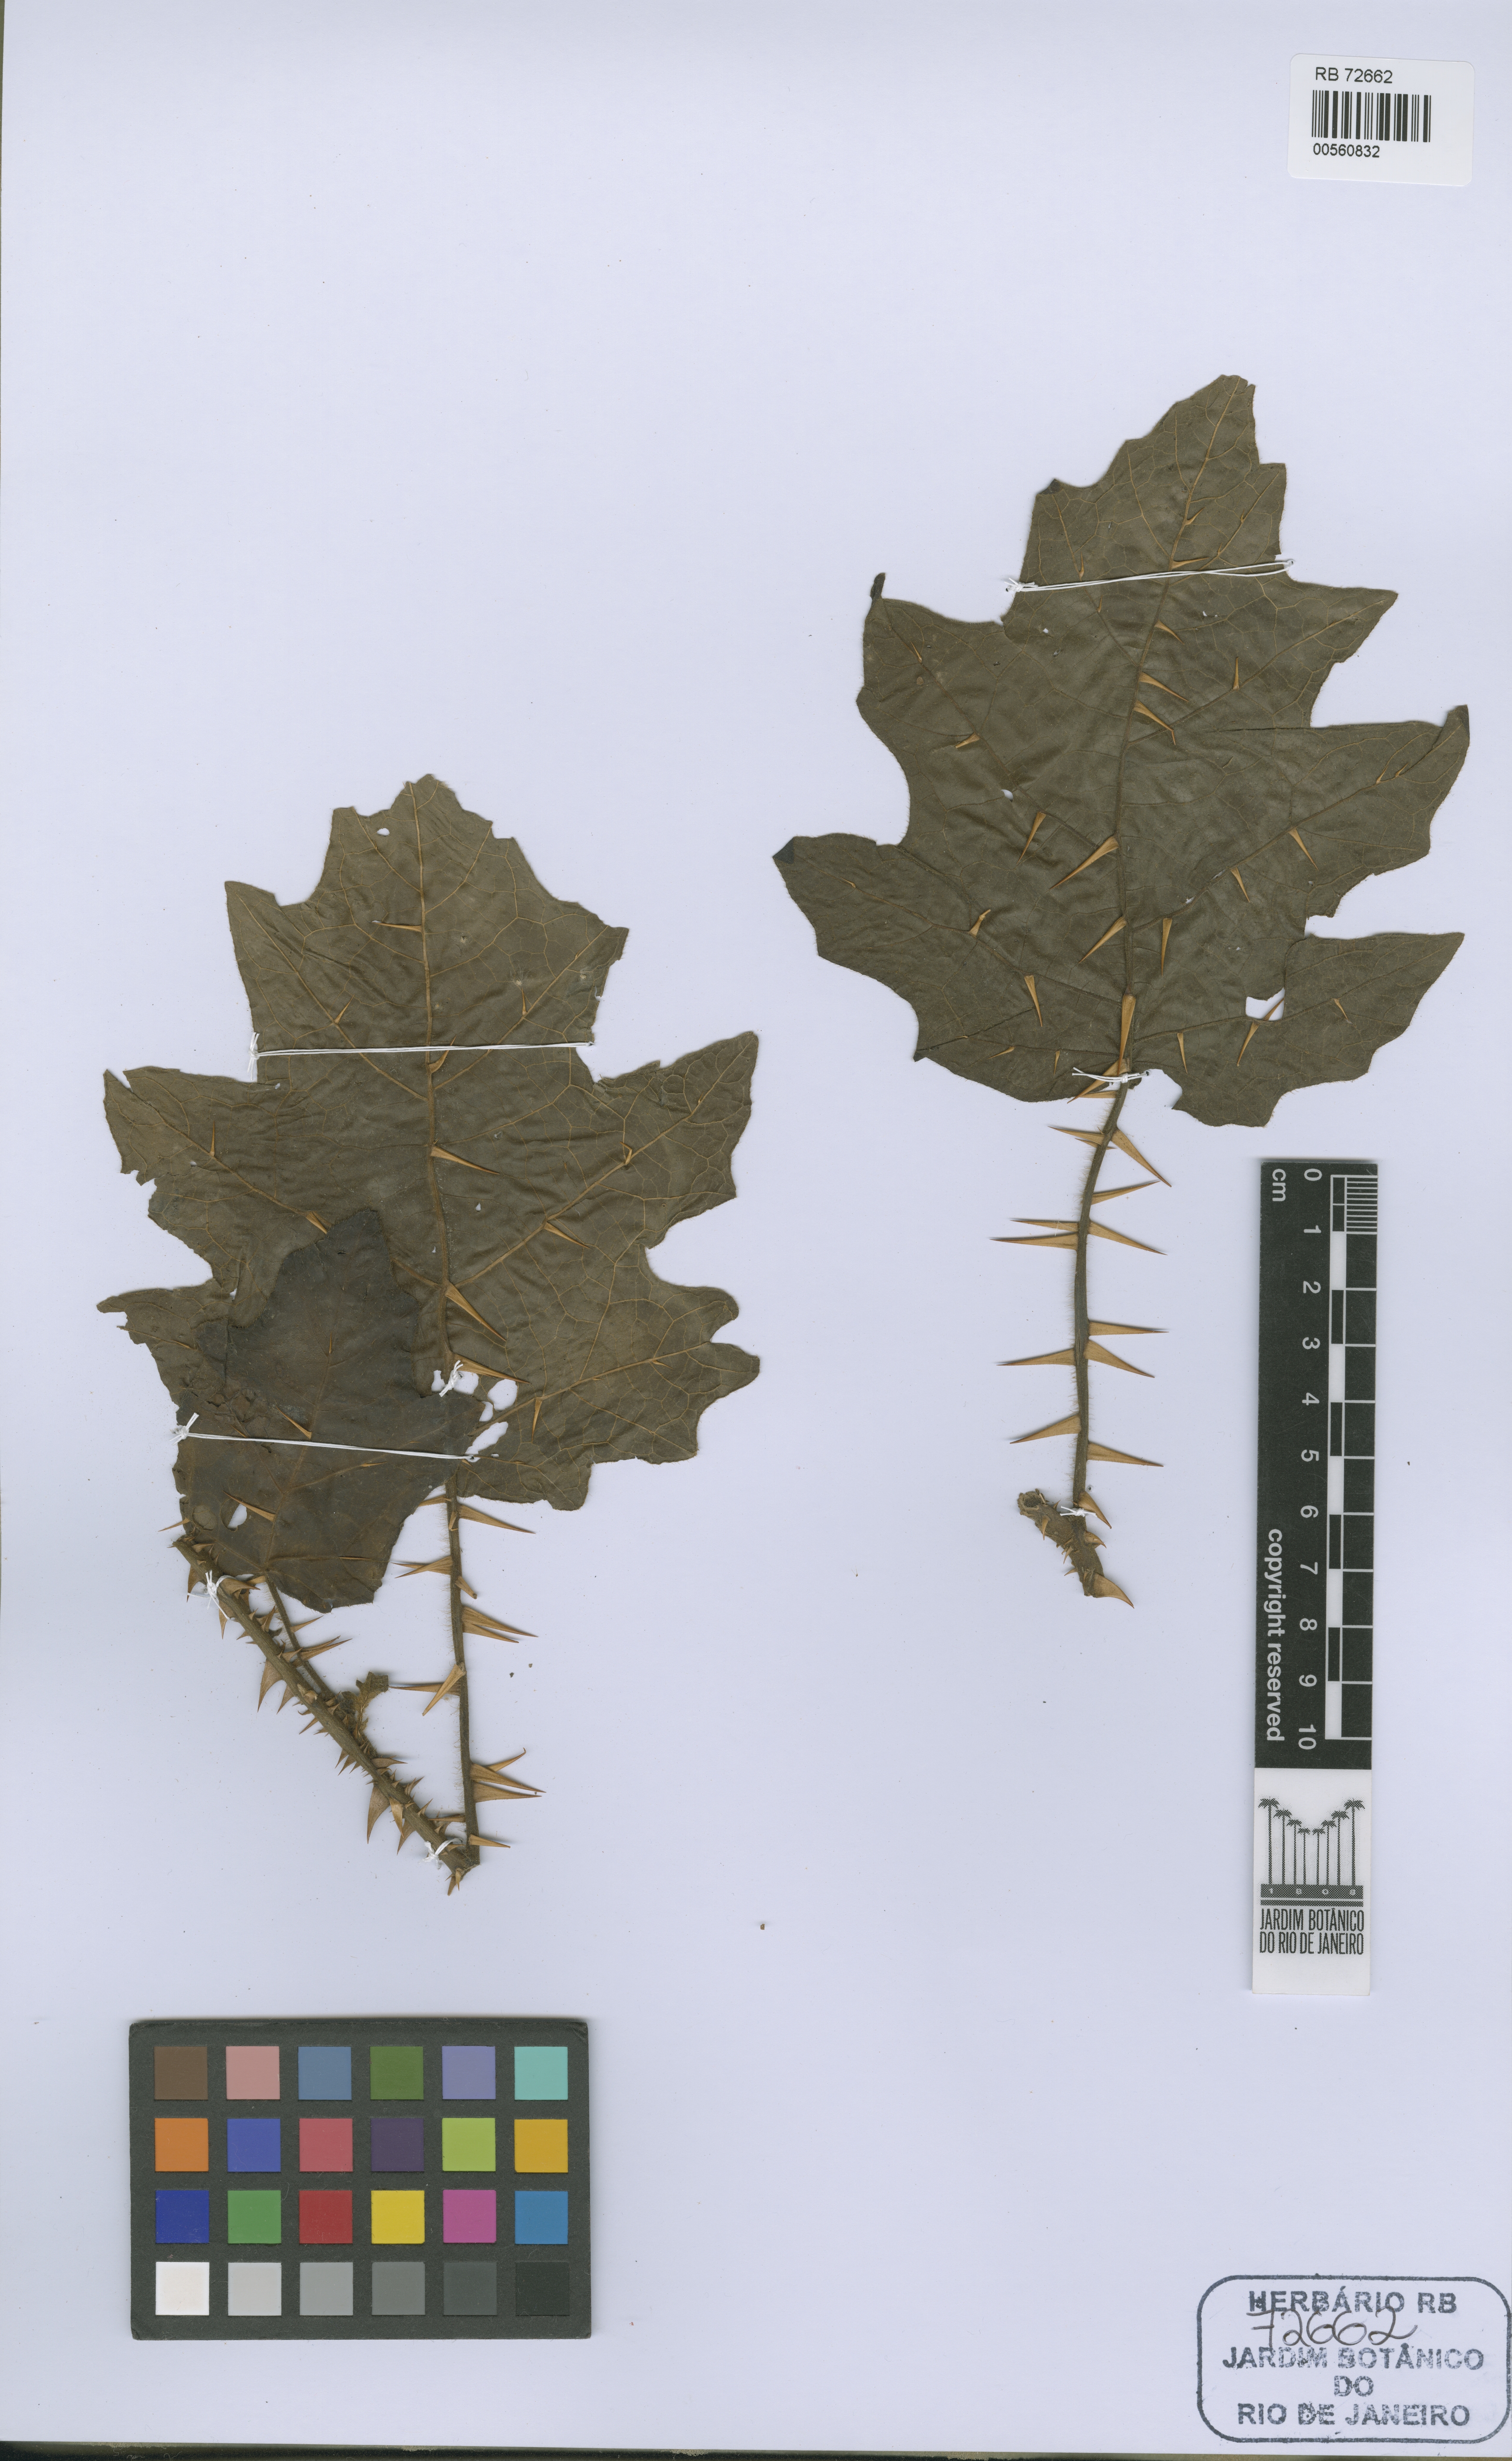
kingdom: Plantae
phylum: Tracheophyta
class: Magnoliopsida
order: Solanales
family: Solanaceae
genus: Solanum
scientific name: Solanum aparadense
